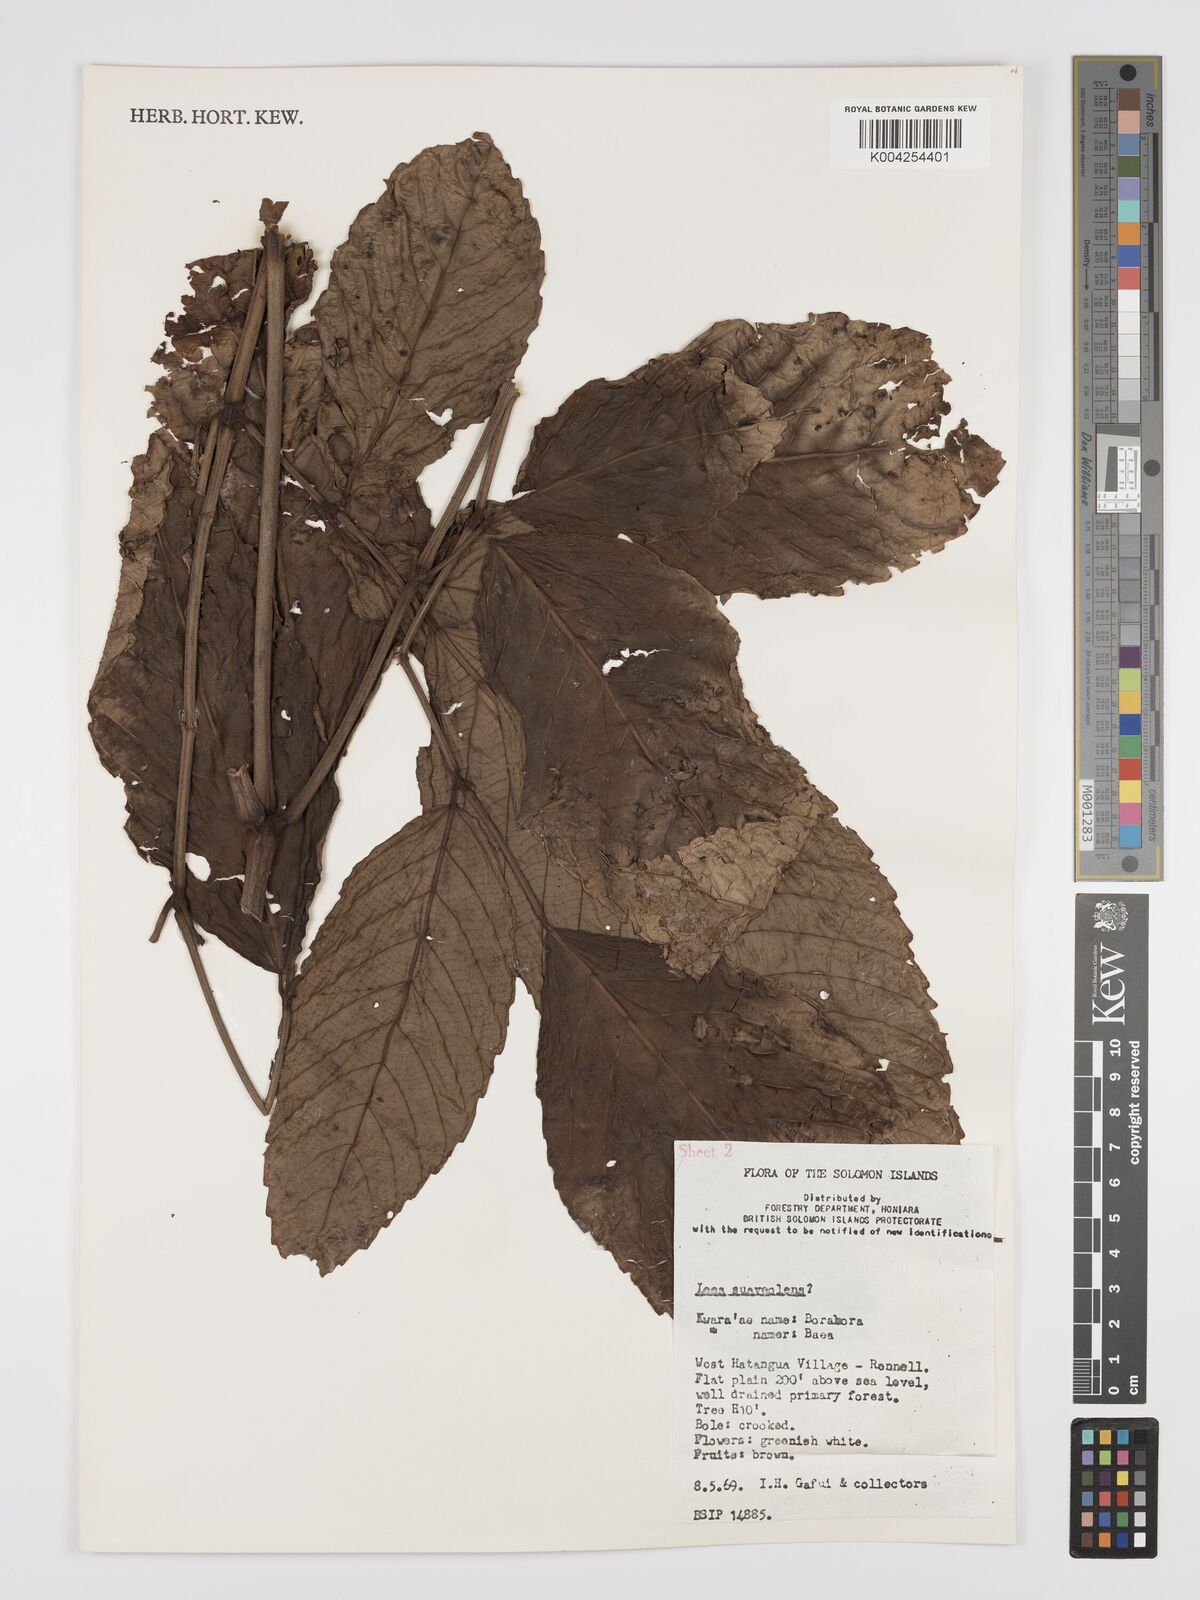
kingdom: Plantae
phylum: Tracheophyta
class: Magnoliopsida
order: Vitales
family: Vitaceae
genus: Leea
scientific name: Leea tetramera
